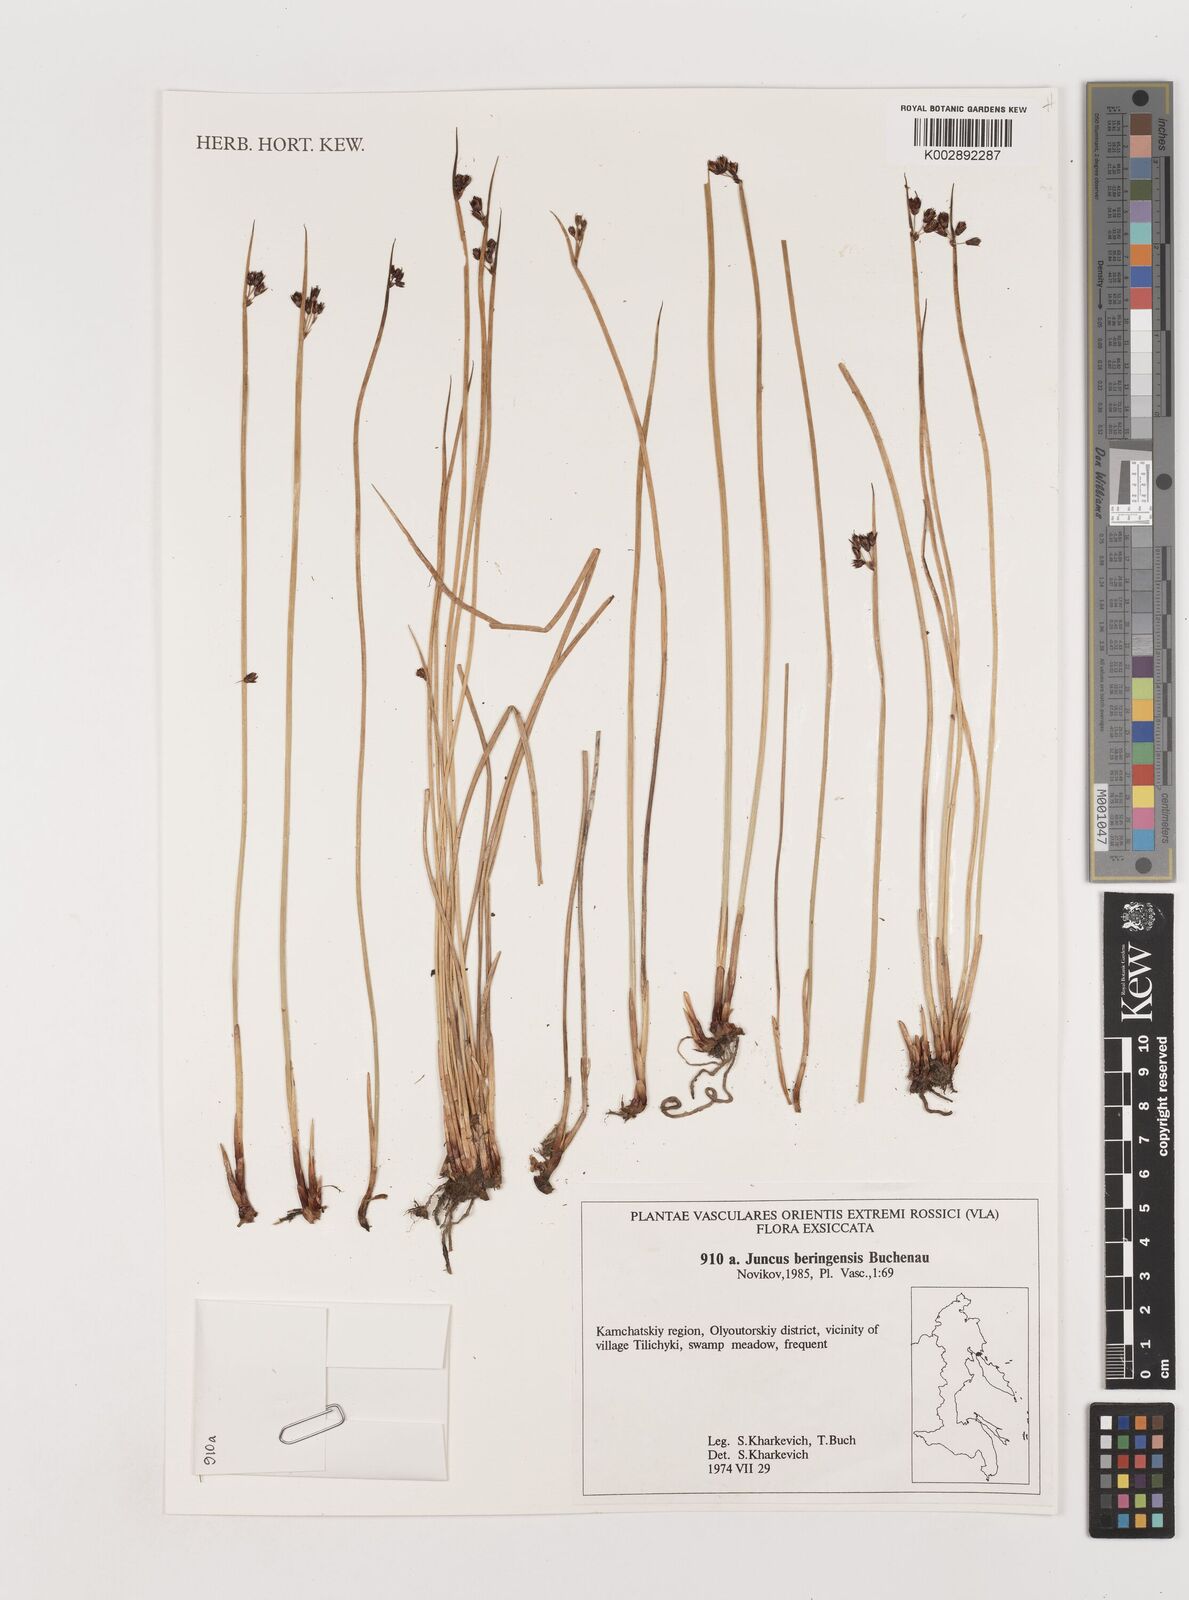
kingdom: Plantae
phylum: Tracheophyta
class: Liliopsida
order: Poales
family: Juncaceae
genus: Juncus
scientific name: Juncus beringensis
